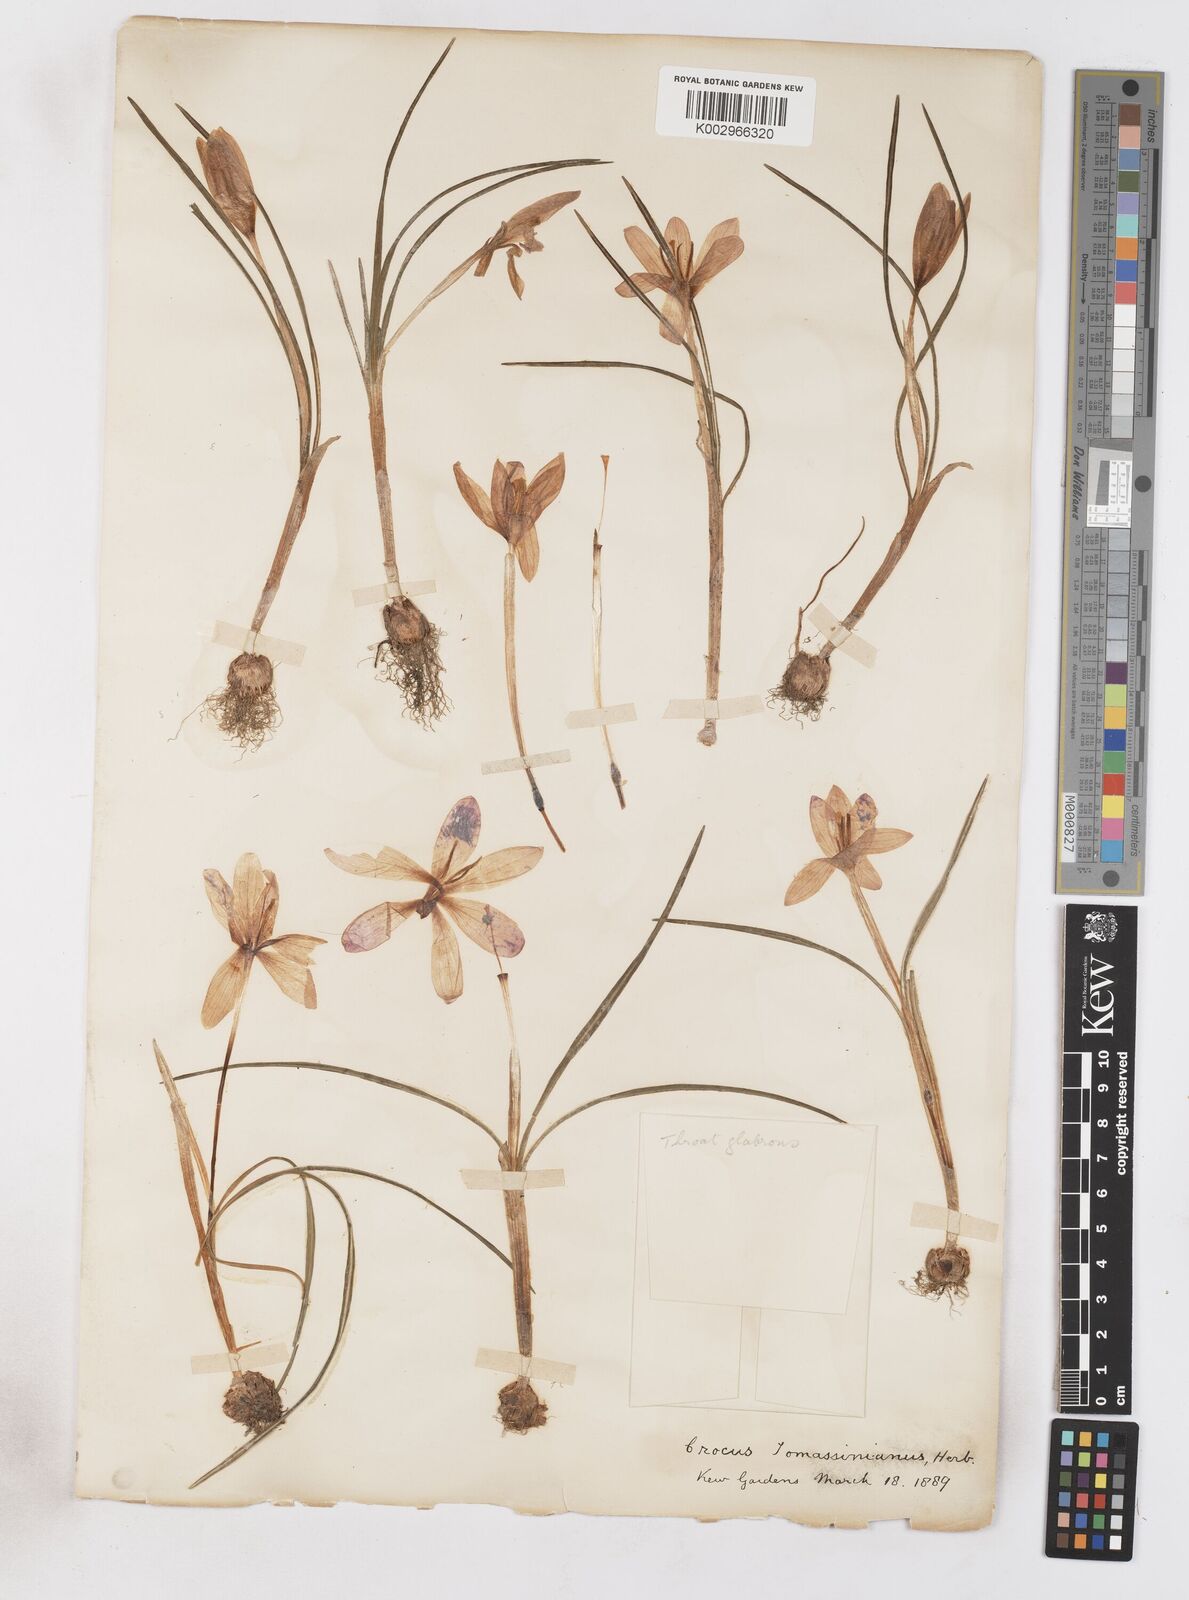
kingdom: Plantae
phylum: Tracheophyta
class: Liliopsida
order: Asparagales
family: Iridaceae
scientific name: Iridaceae
